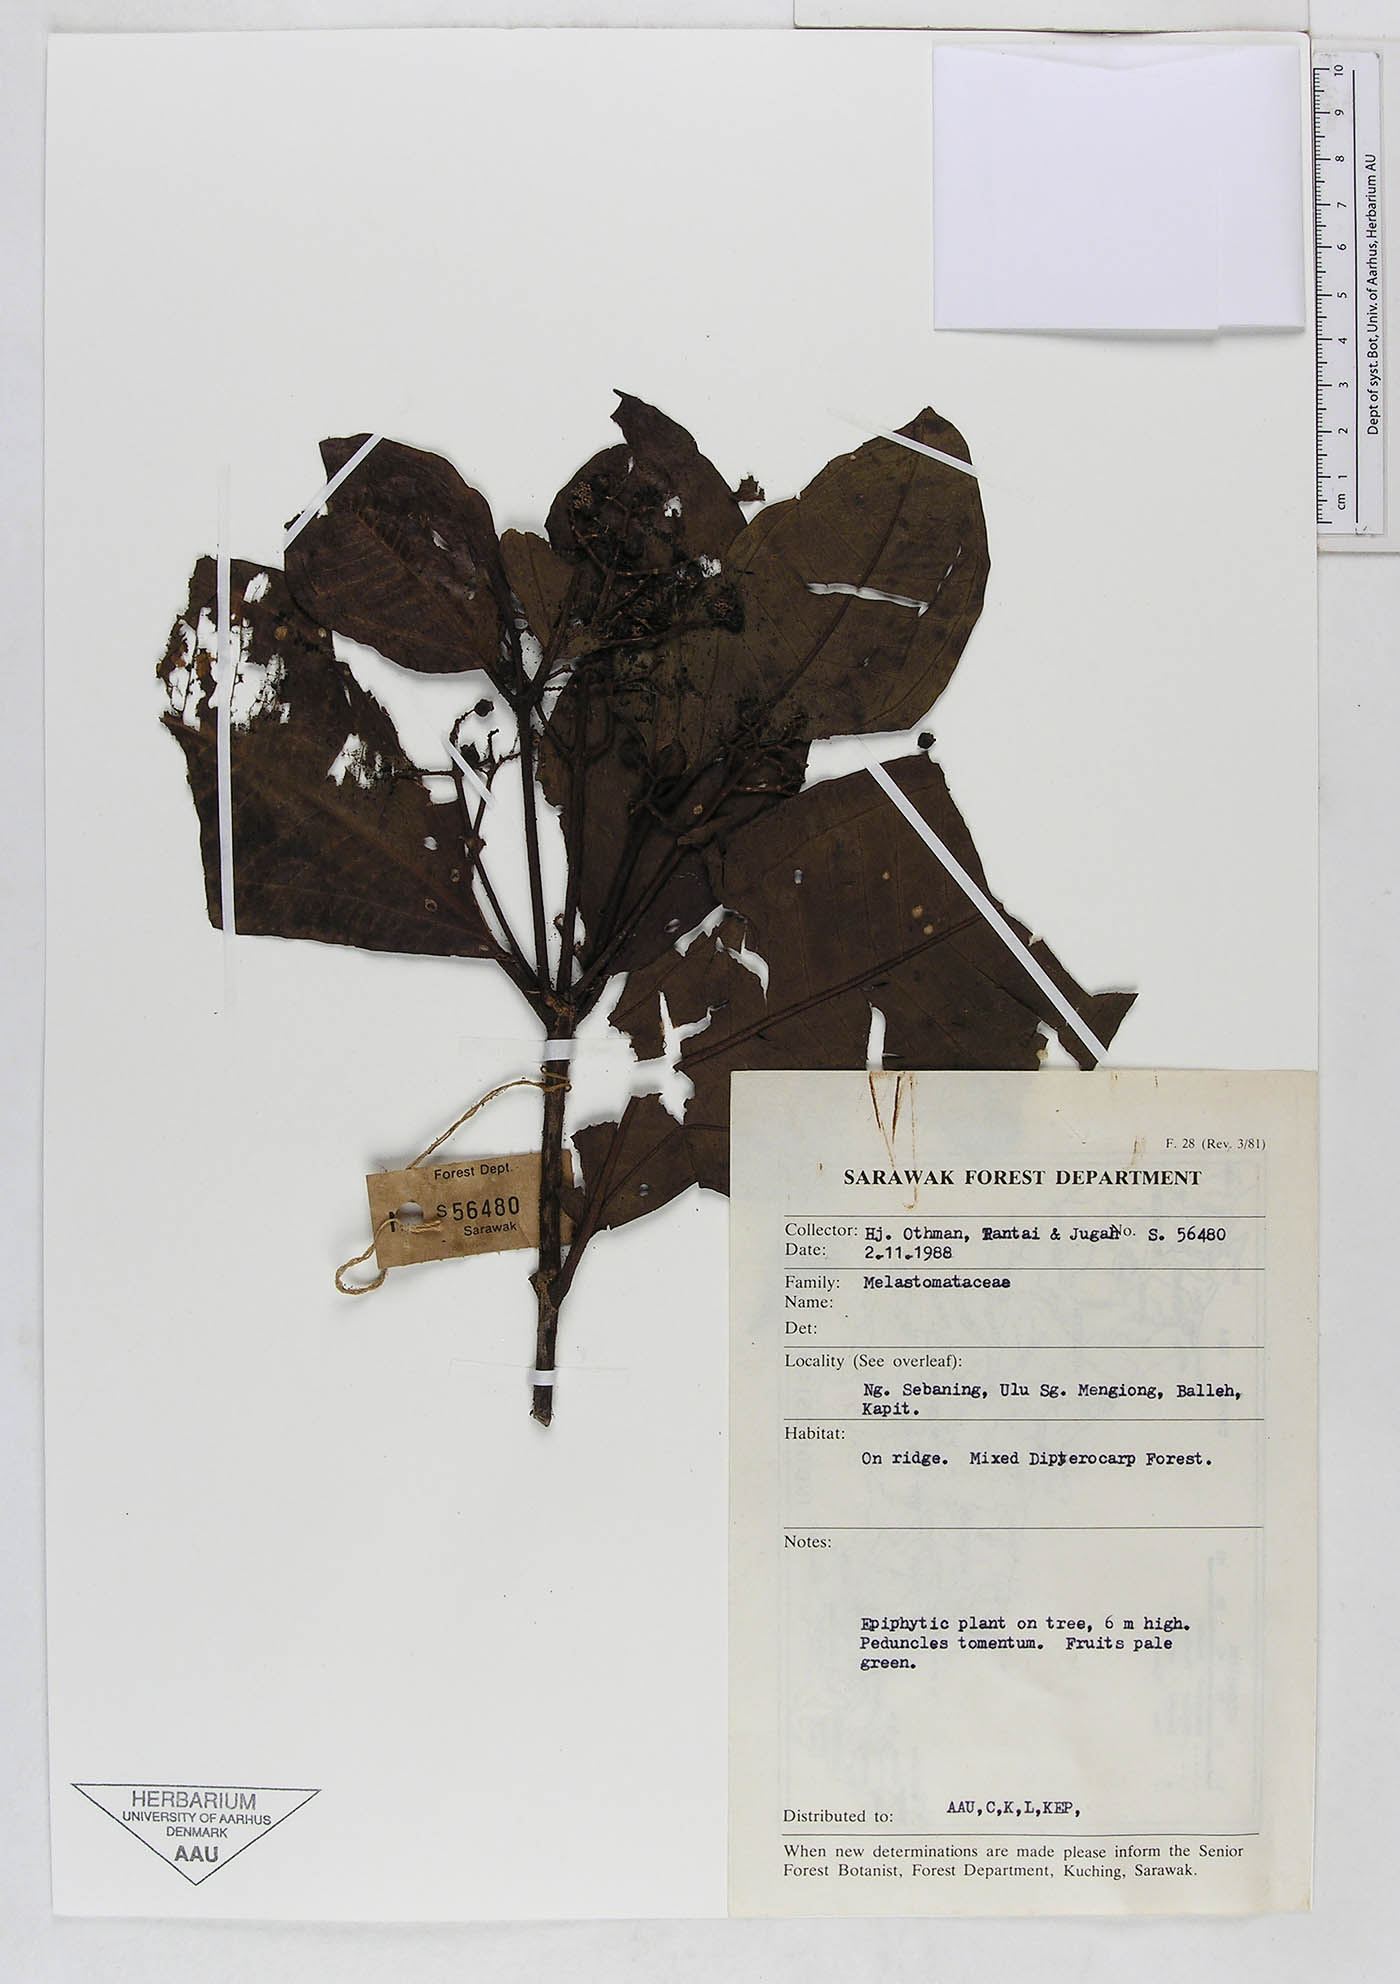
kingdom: Plantae
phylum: Tracheophyta
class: Magnoliopsida
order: Myrtales
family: Melastomataceae
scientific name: Melastomataceae
